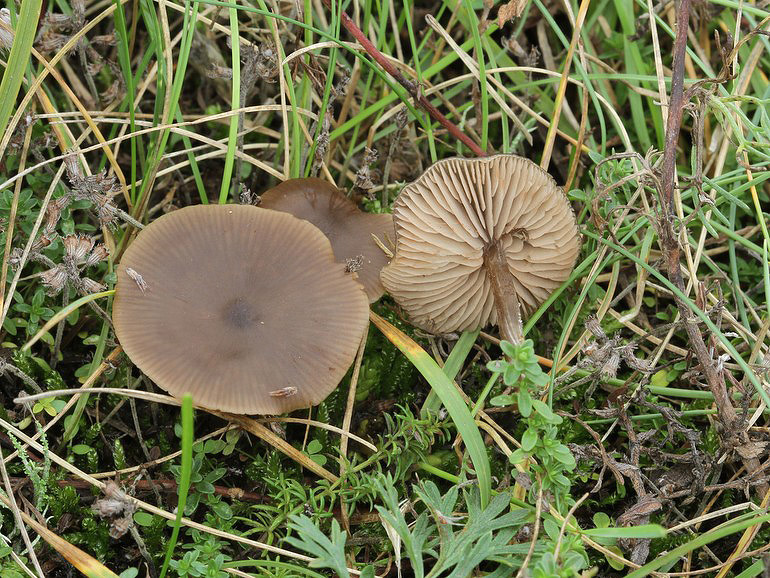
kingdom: Fungi
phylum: Basidiomycota
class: Agaricomycetes
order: Agaricales
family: Entolomataceae
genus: Entoloma
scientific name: Entoloma sericeum
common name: silkeglinsende rødblad
